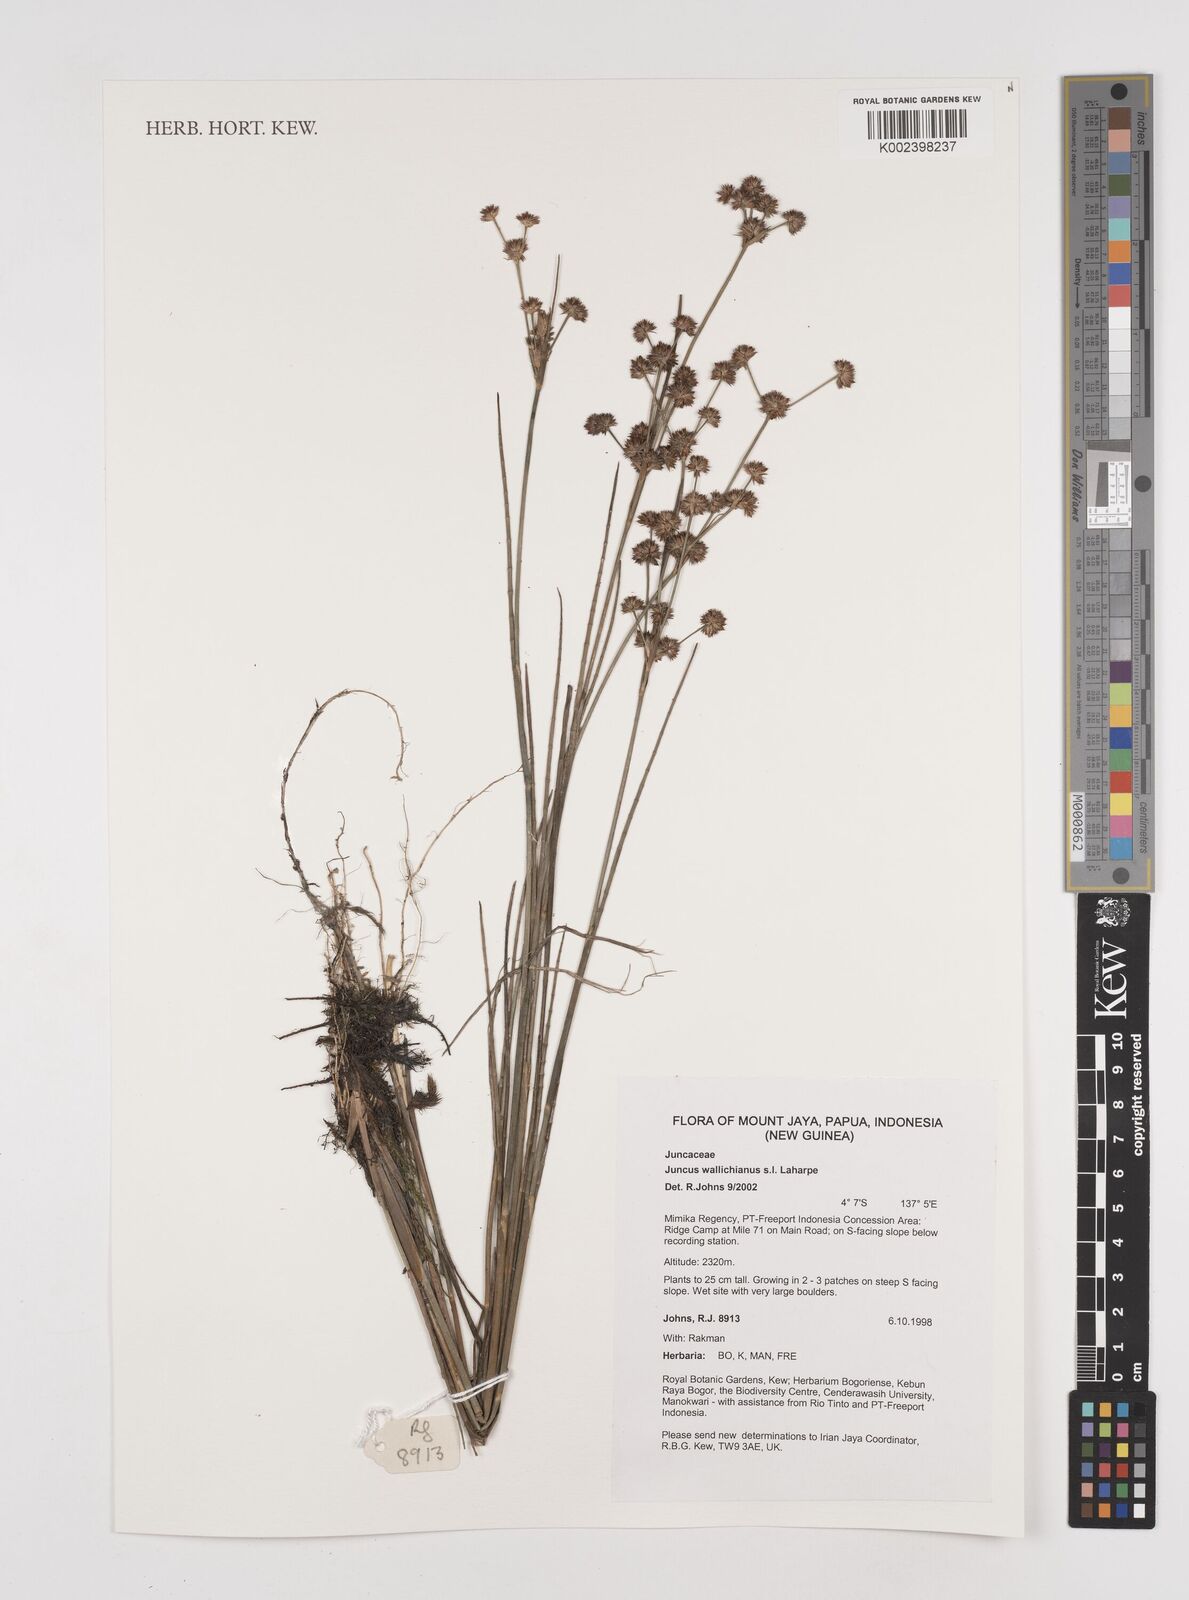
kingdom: Plantae
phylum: Tracheophyta
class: Liliopsida
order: Poales
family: Juncaceae
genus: Juncus
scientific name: Juncus wallichianus
